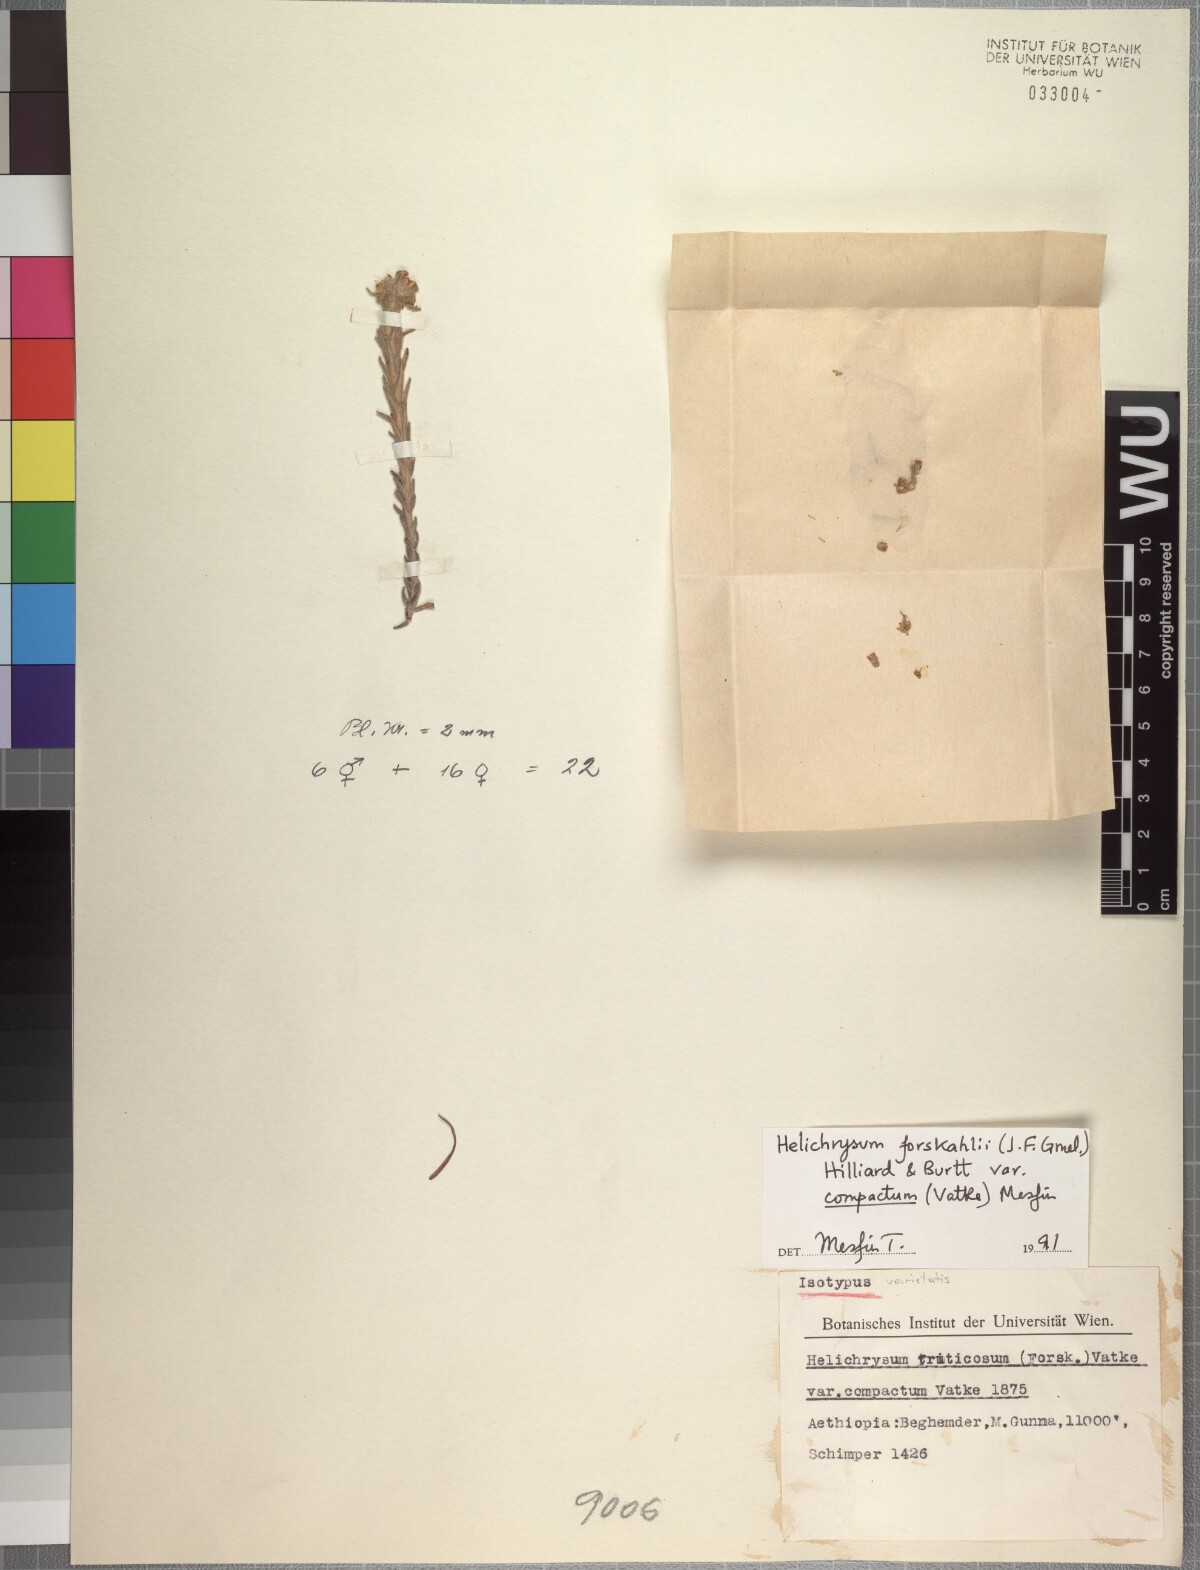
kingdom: Plantae
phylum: Tracheophyta
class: Magnoliopsida
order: Asterales
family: Asteraceae
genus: Helichrysum
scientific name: Helichrysum forskahlii
